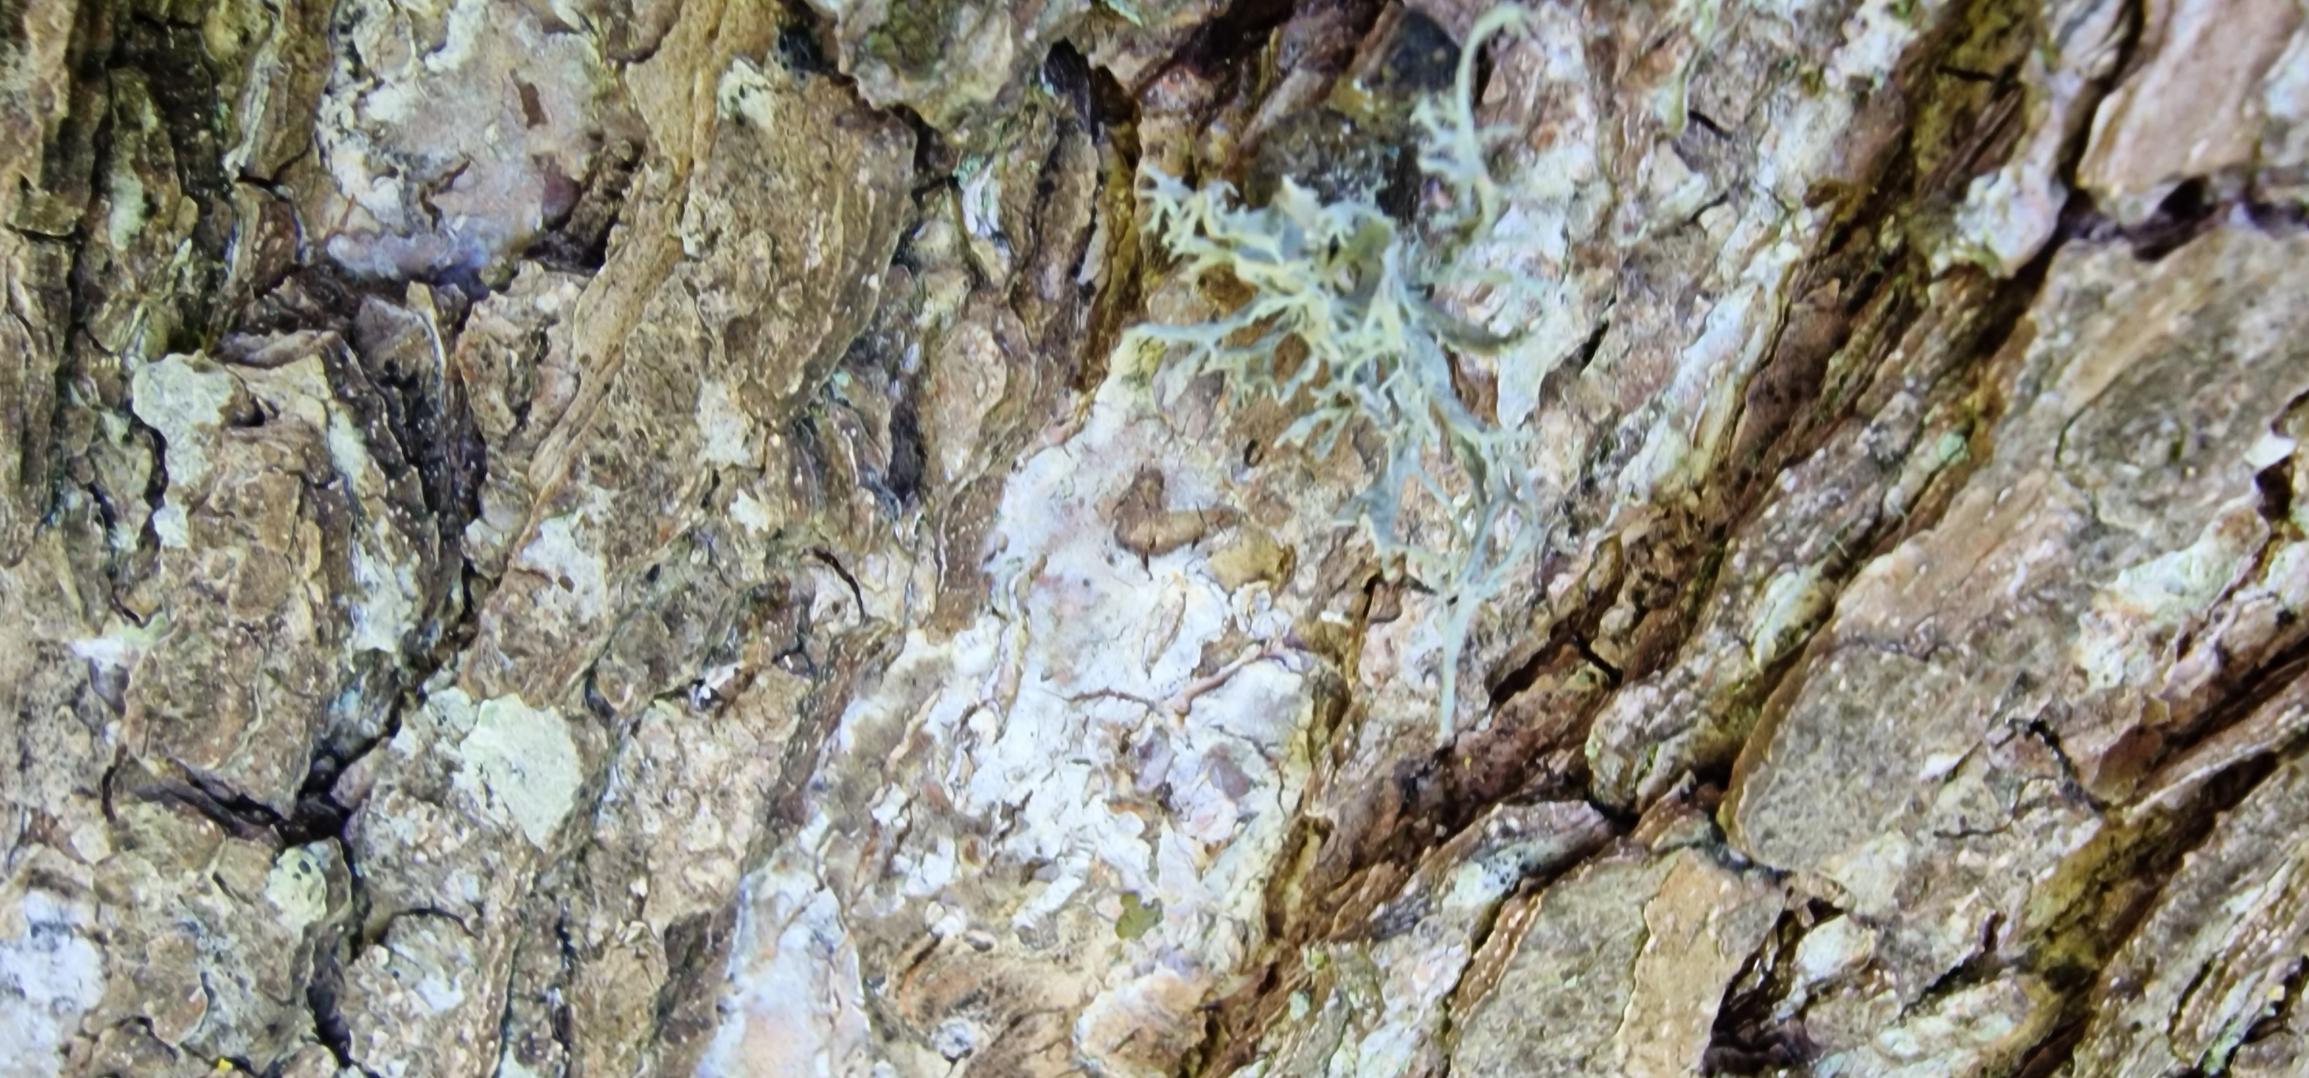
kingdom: Fungi
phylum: Ascomycota
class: Lecanoromycetes
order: Lecanorales
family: Ramalinaceae
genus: Ramalina
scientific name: Ramalina farinacea
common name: Melet grenlav
